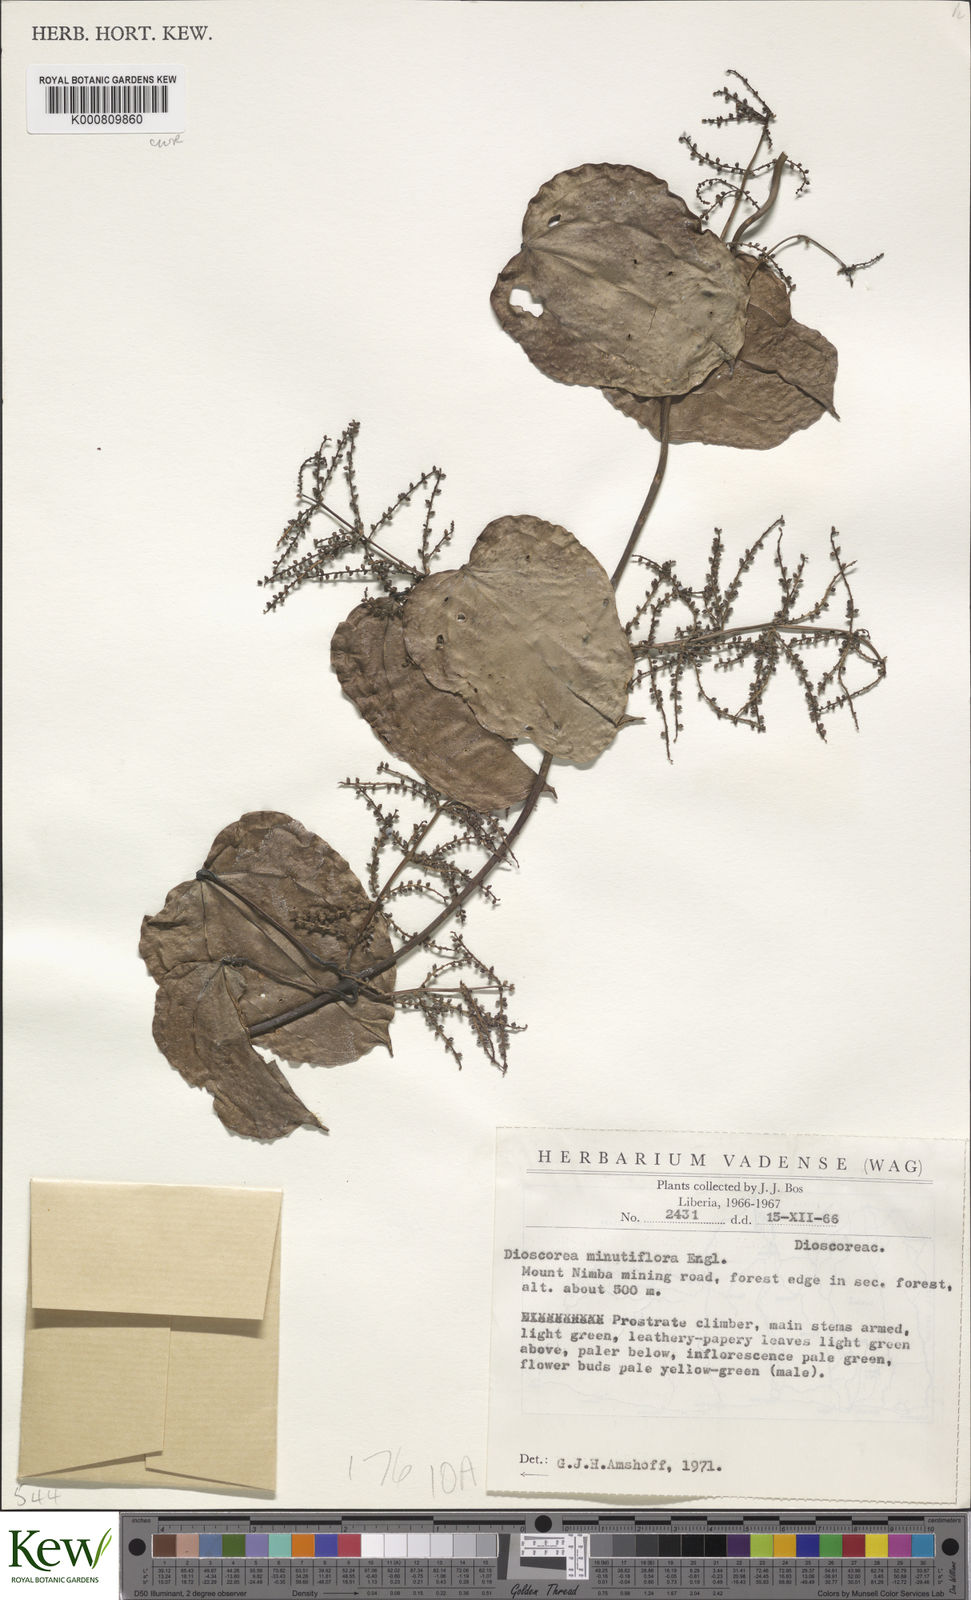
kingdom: Plantae
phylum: Tracheophyta
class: Liliopsida
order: Dioscoreales
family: Dioscoreaceae
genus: Dioscorea
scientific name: Dioscorea minutiflora
